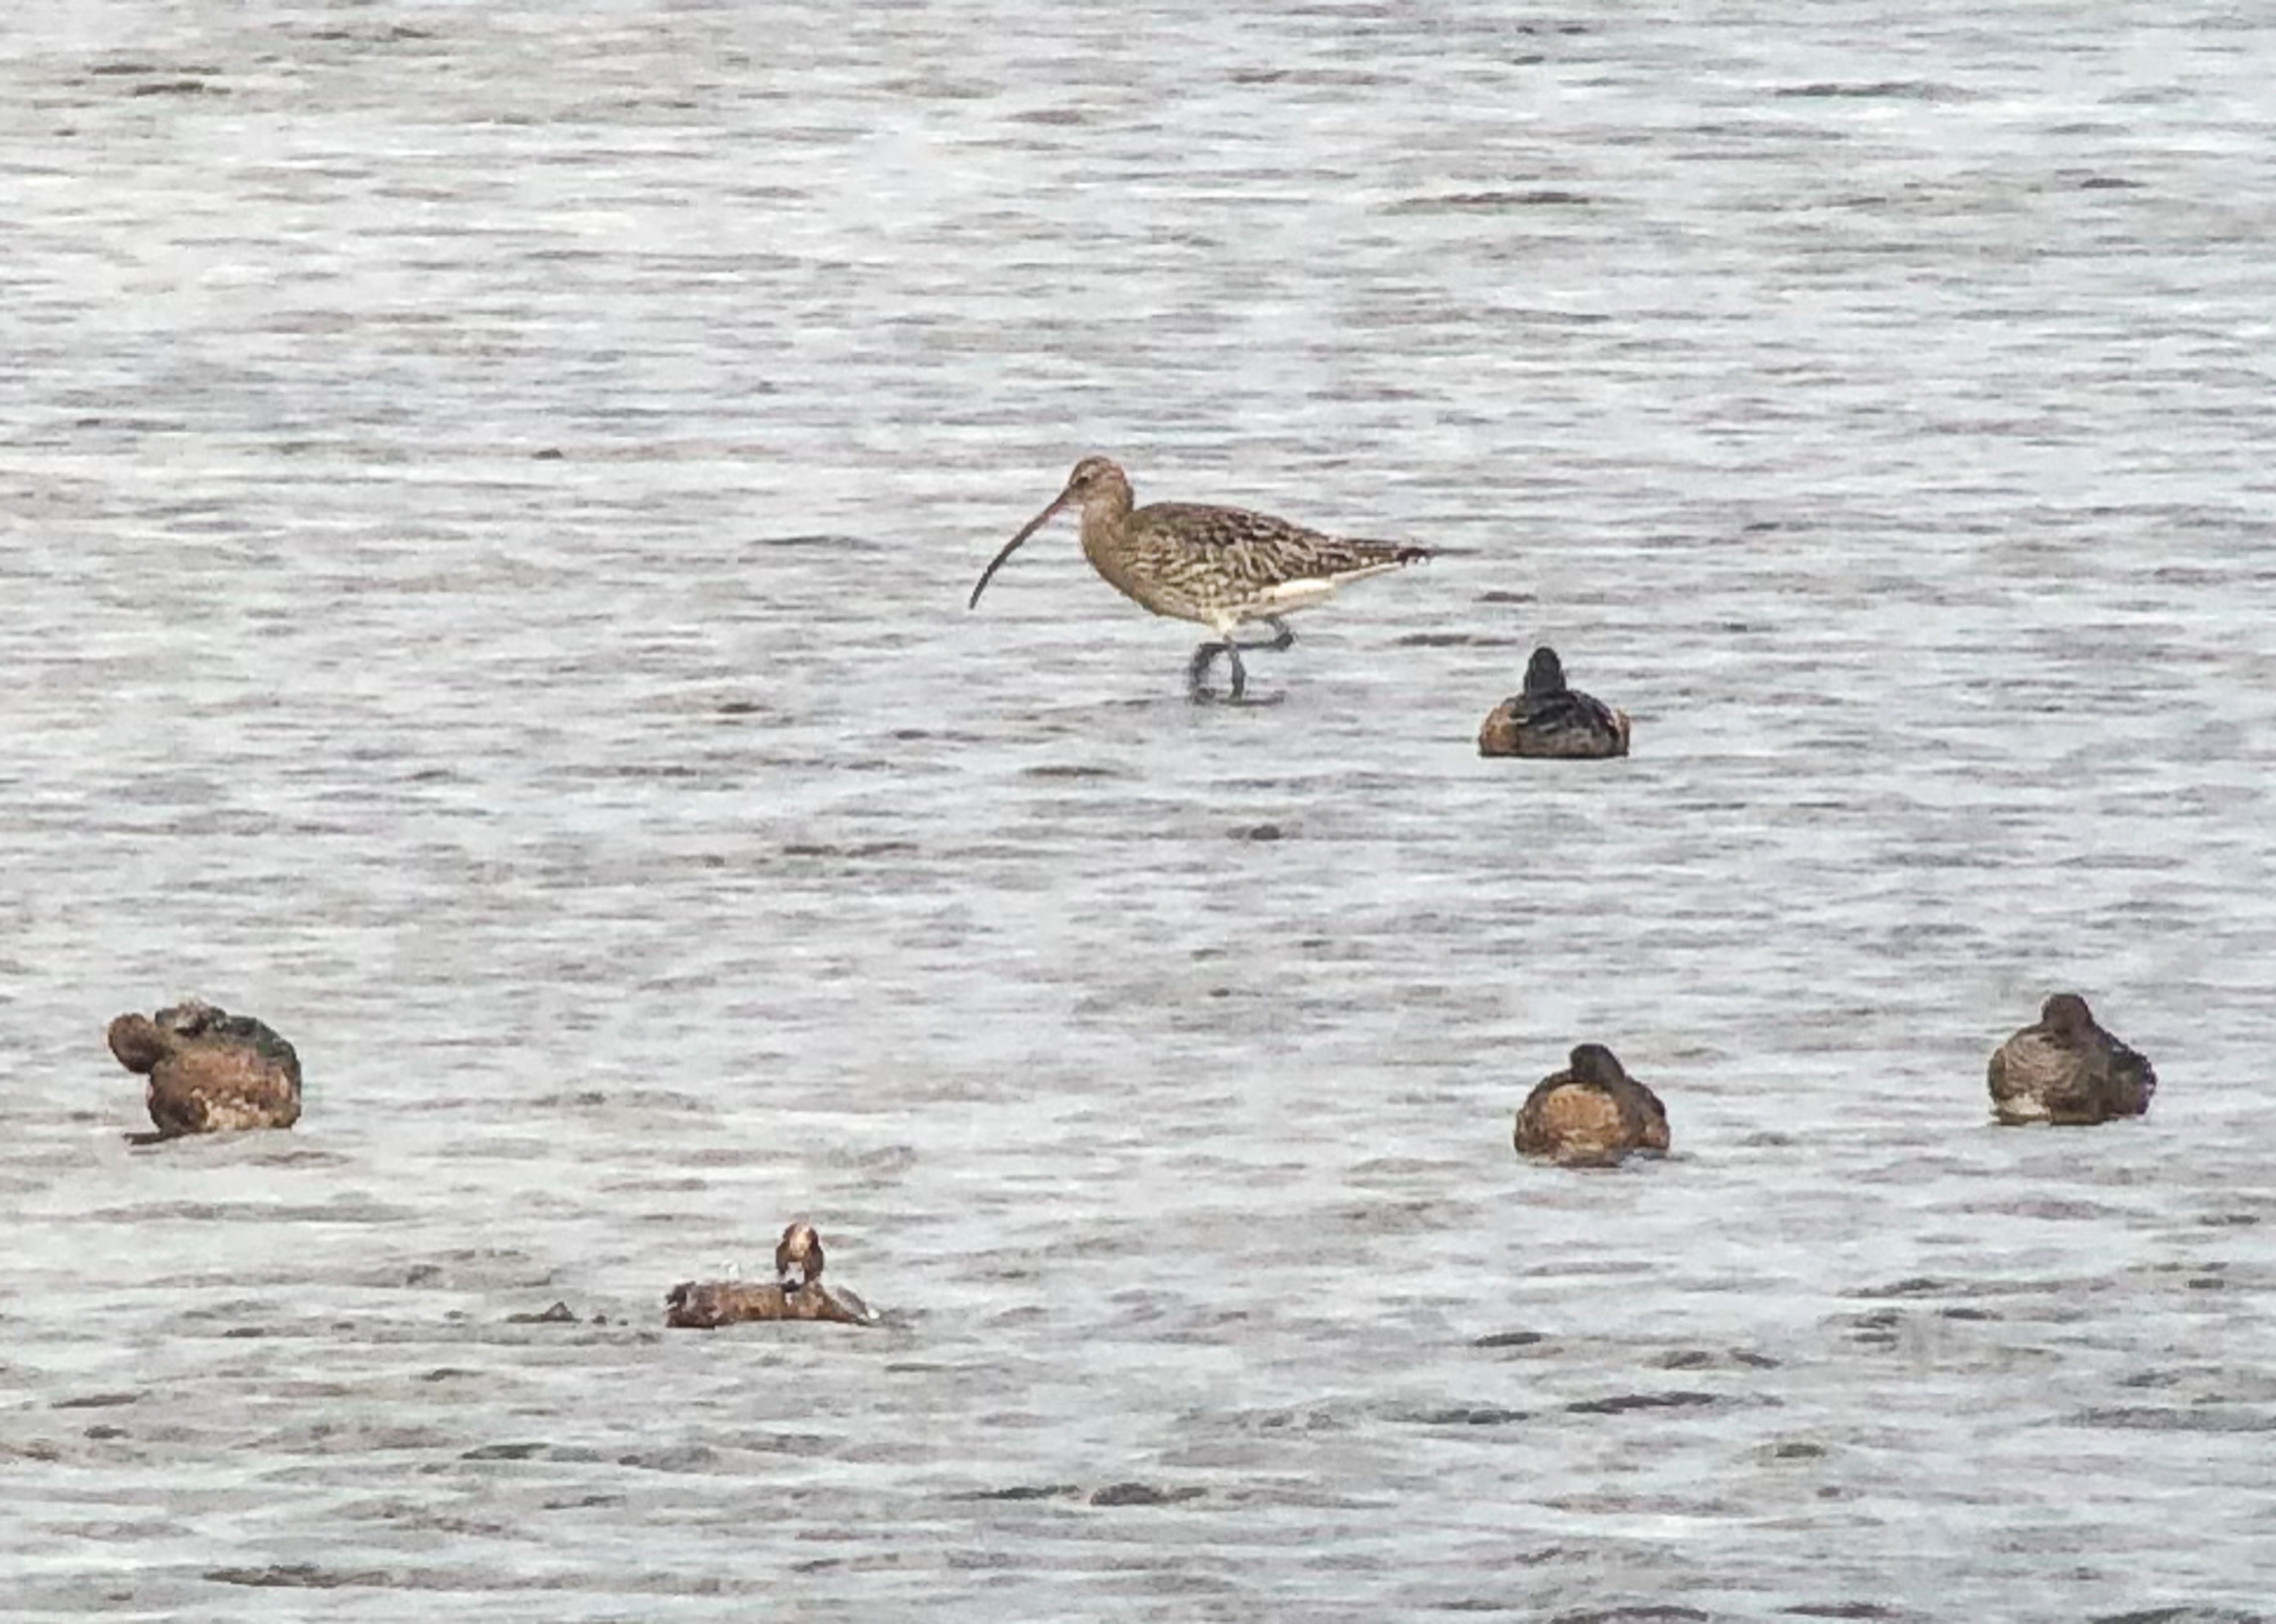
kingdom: Animalia
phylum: Chordata
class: Aves
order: Charadriiformes
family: Scolopacidae
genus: Numenius
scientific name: Numenius arquata
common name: Storspove
